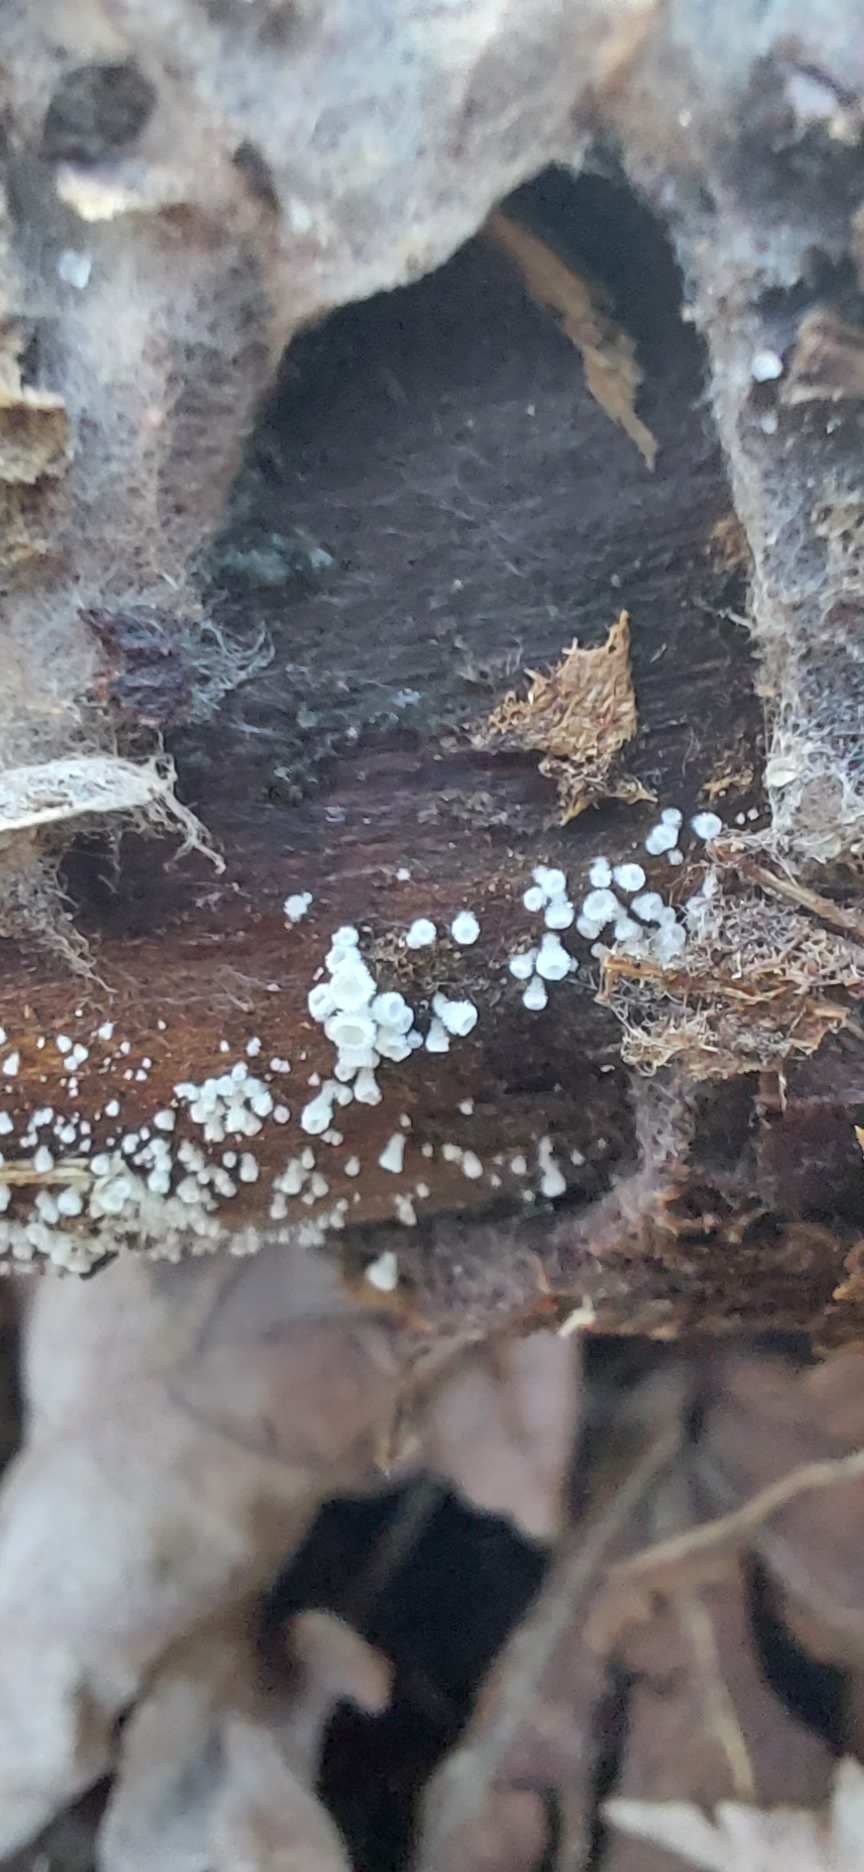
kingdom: Fungi
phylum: Ascomycota
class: Leotiomycetes
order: Helotiales
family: Lachnaceae
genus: Lachnum
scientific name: Lachnum
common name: frynseskive
